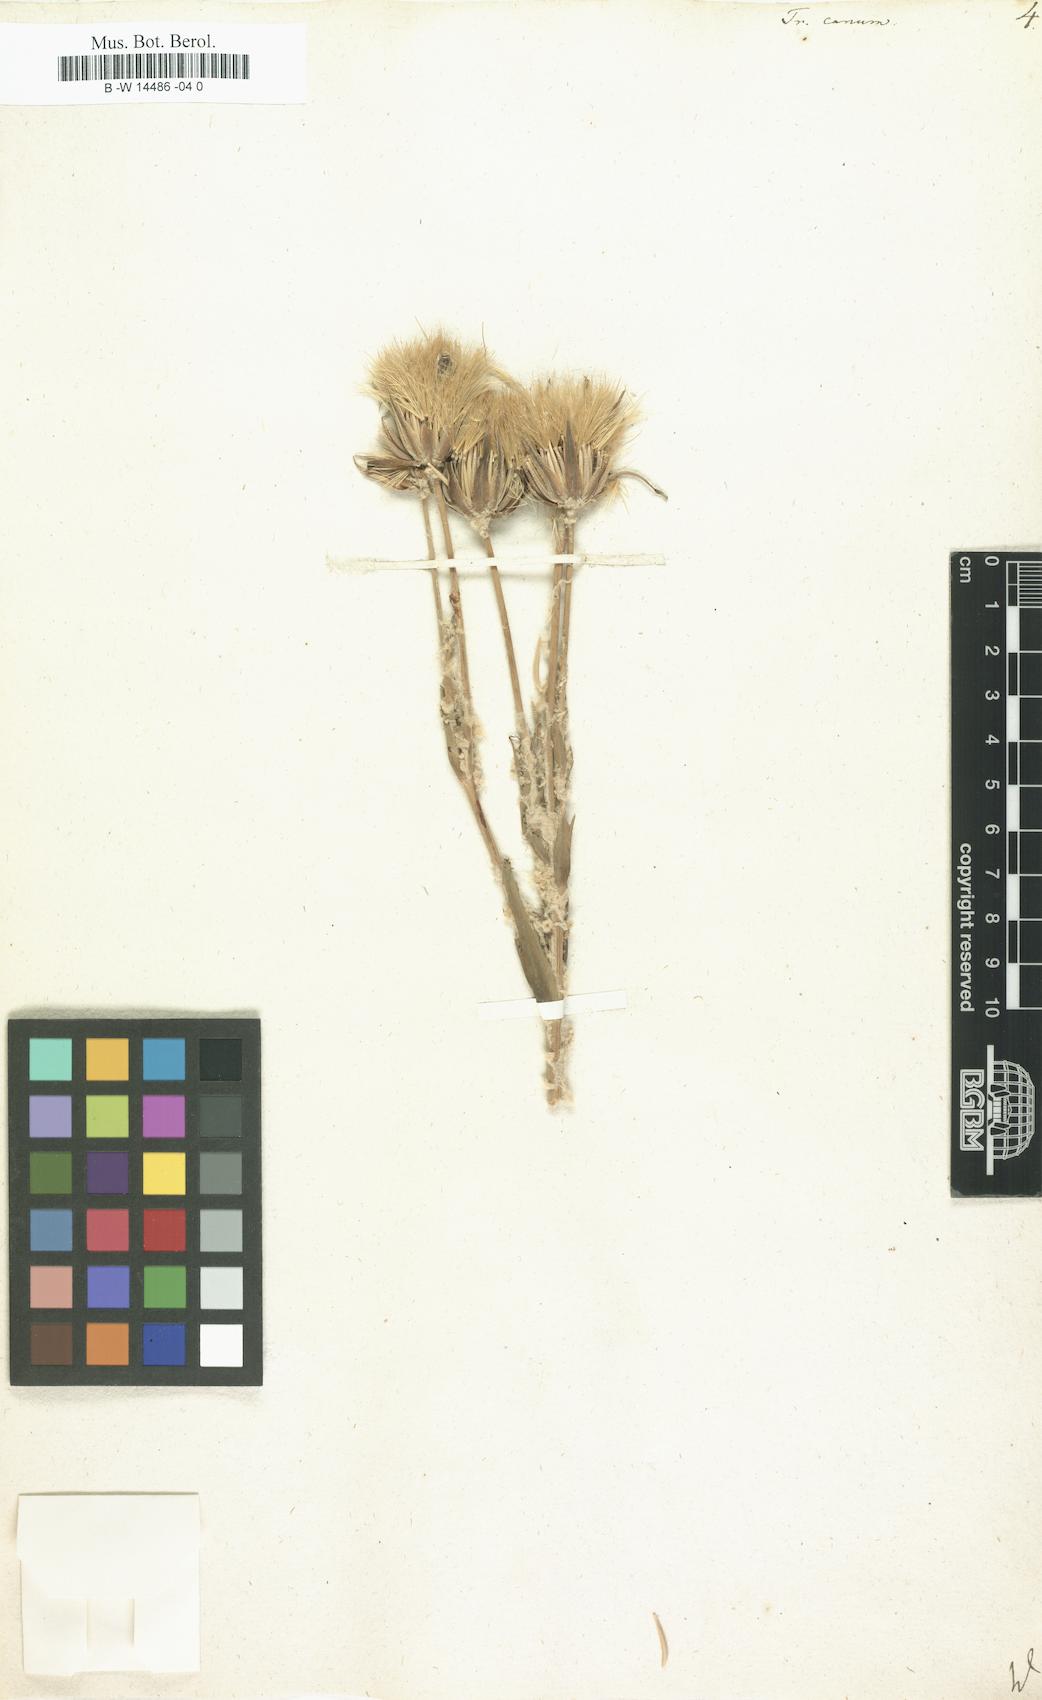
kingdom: Plantae
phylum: Tracheophyta
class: Magnoliopsida
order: Asterales
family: Asteraceae
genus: Tragopogon
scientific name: Tragopogon floccosus
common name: Woolly goatsbeard
